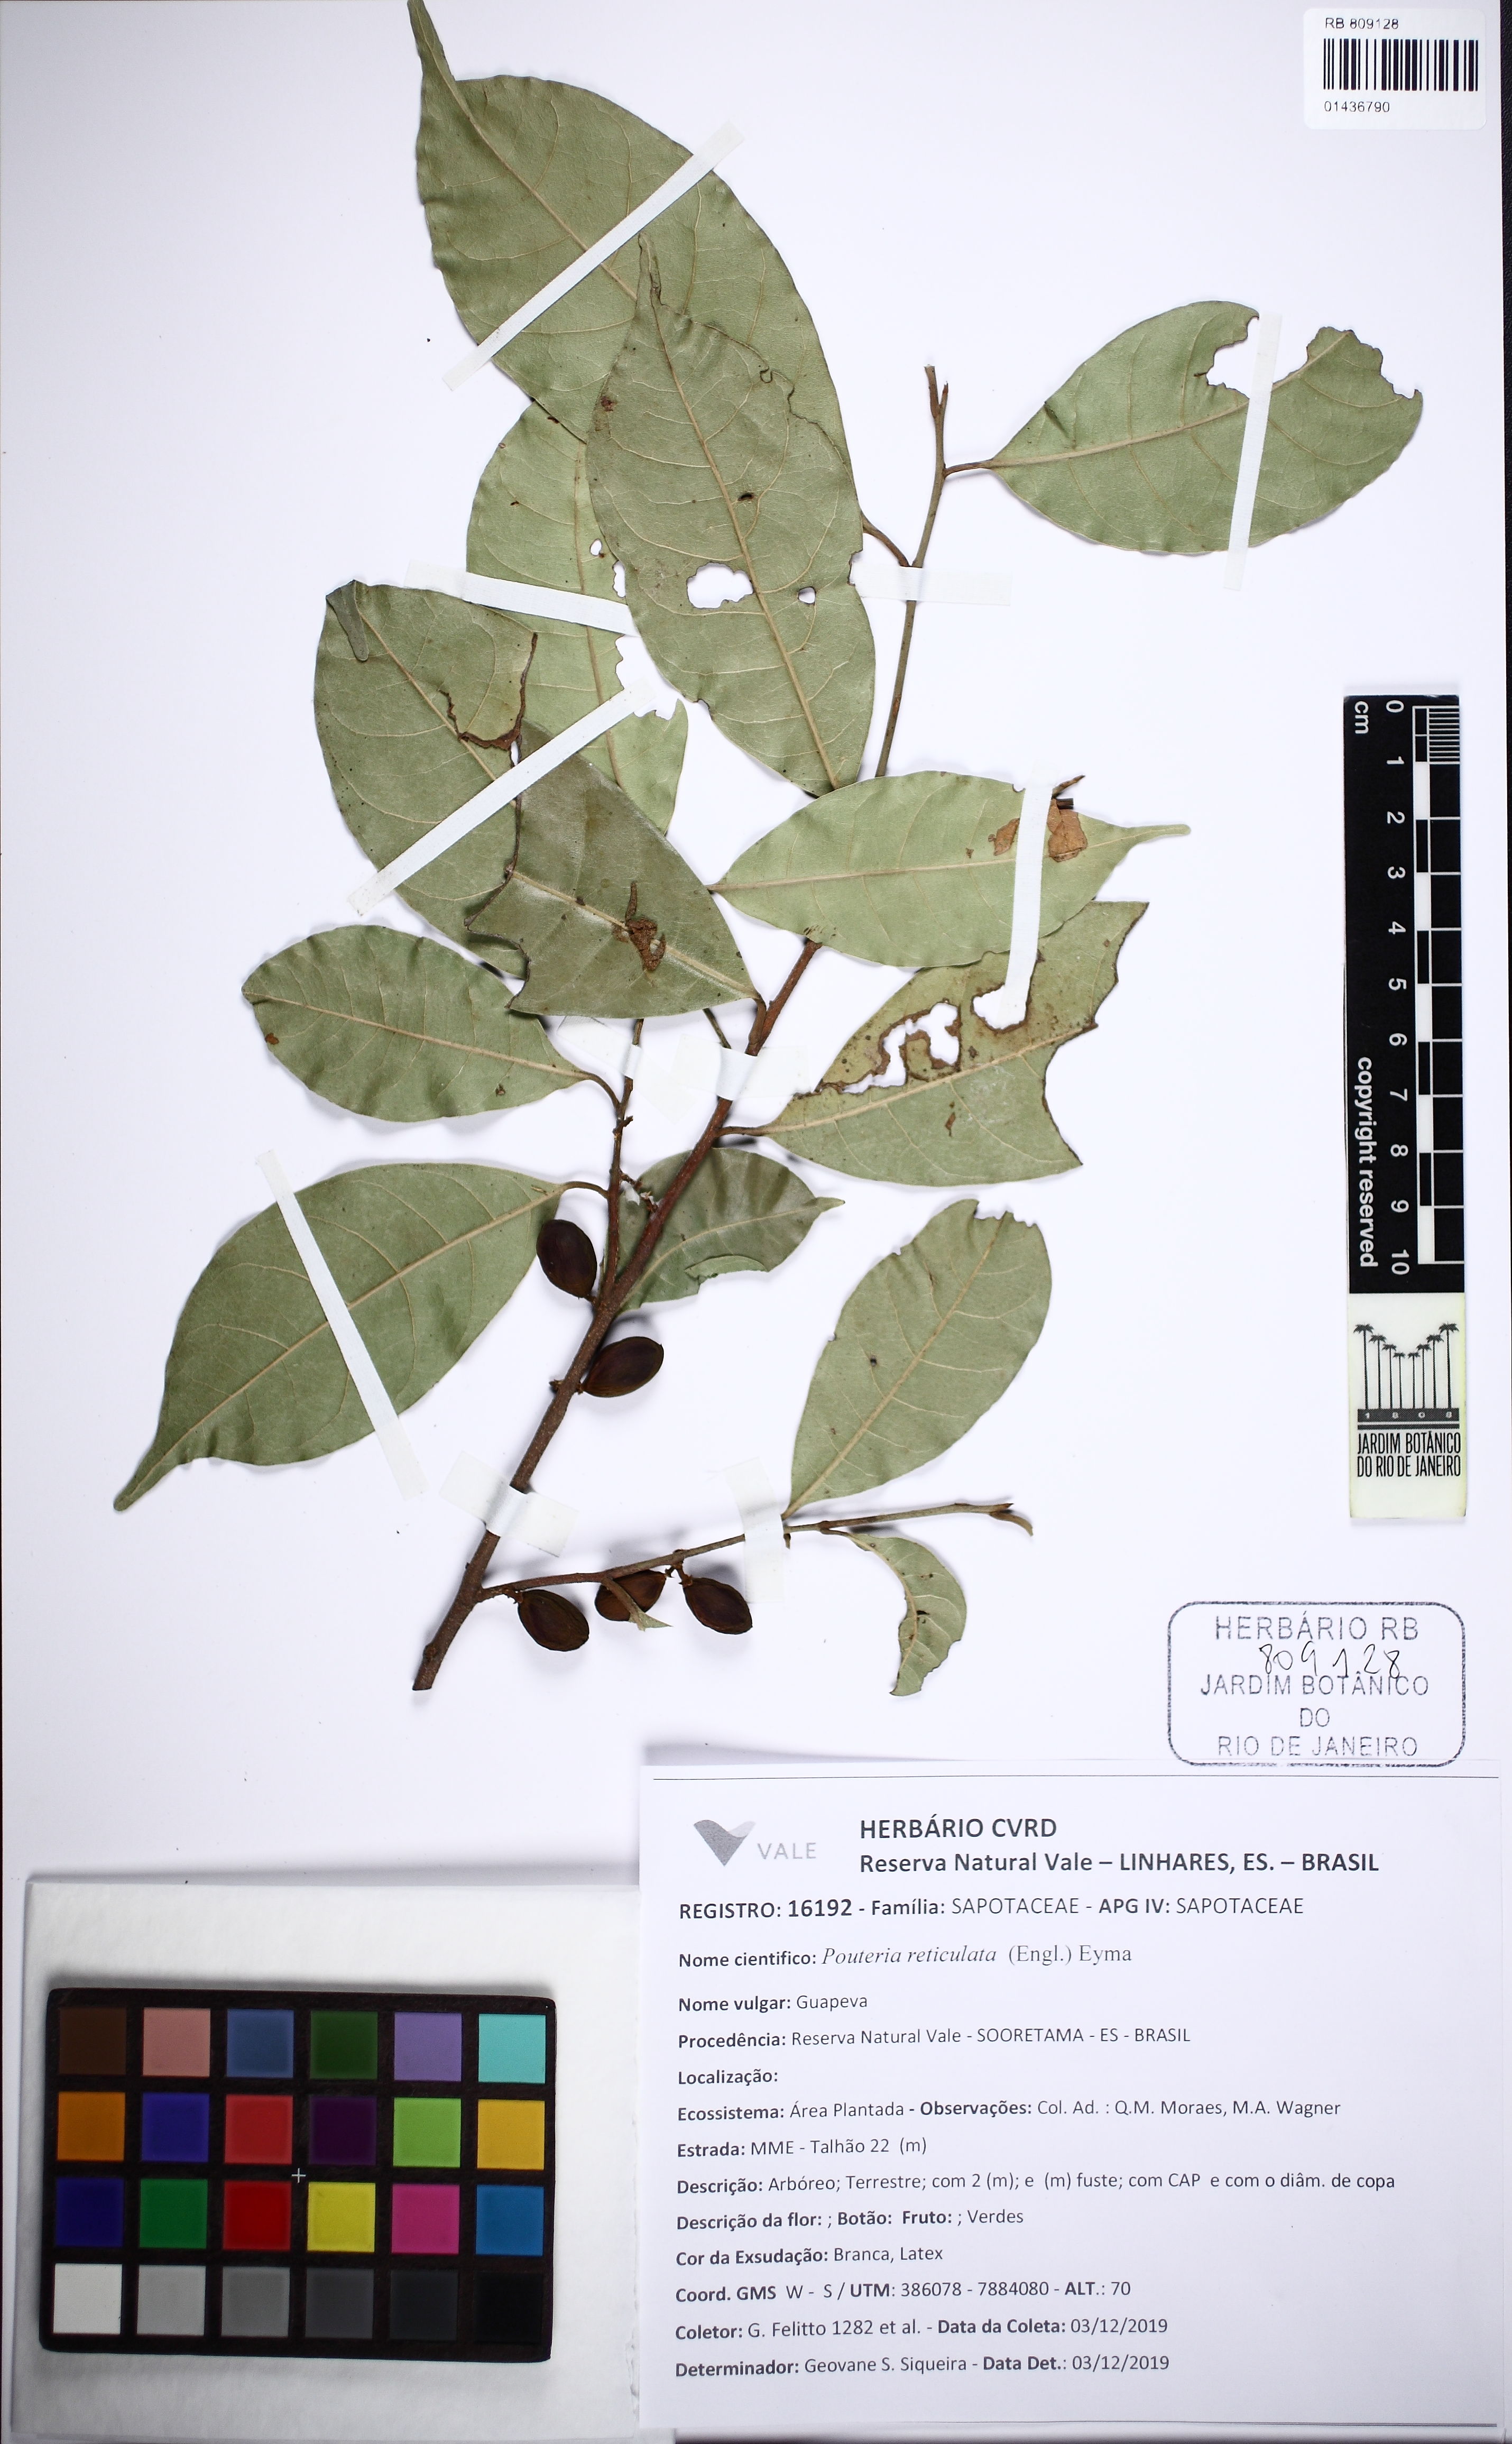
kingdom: Plantae
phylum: Tracheophyta
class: Magnoliopsida
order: Ericales
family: Sapotaceae
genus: Pouteria
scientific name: Pouteria
